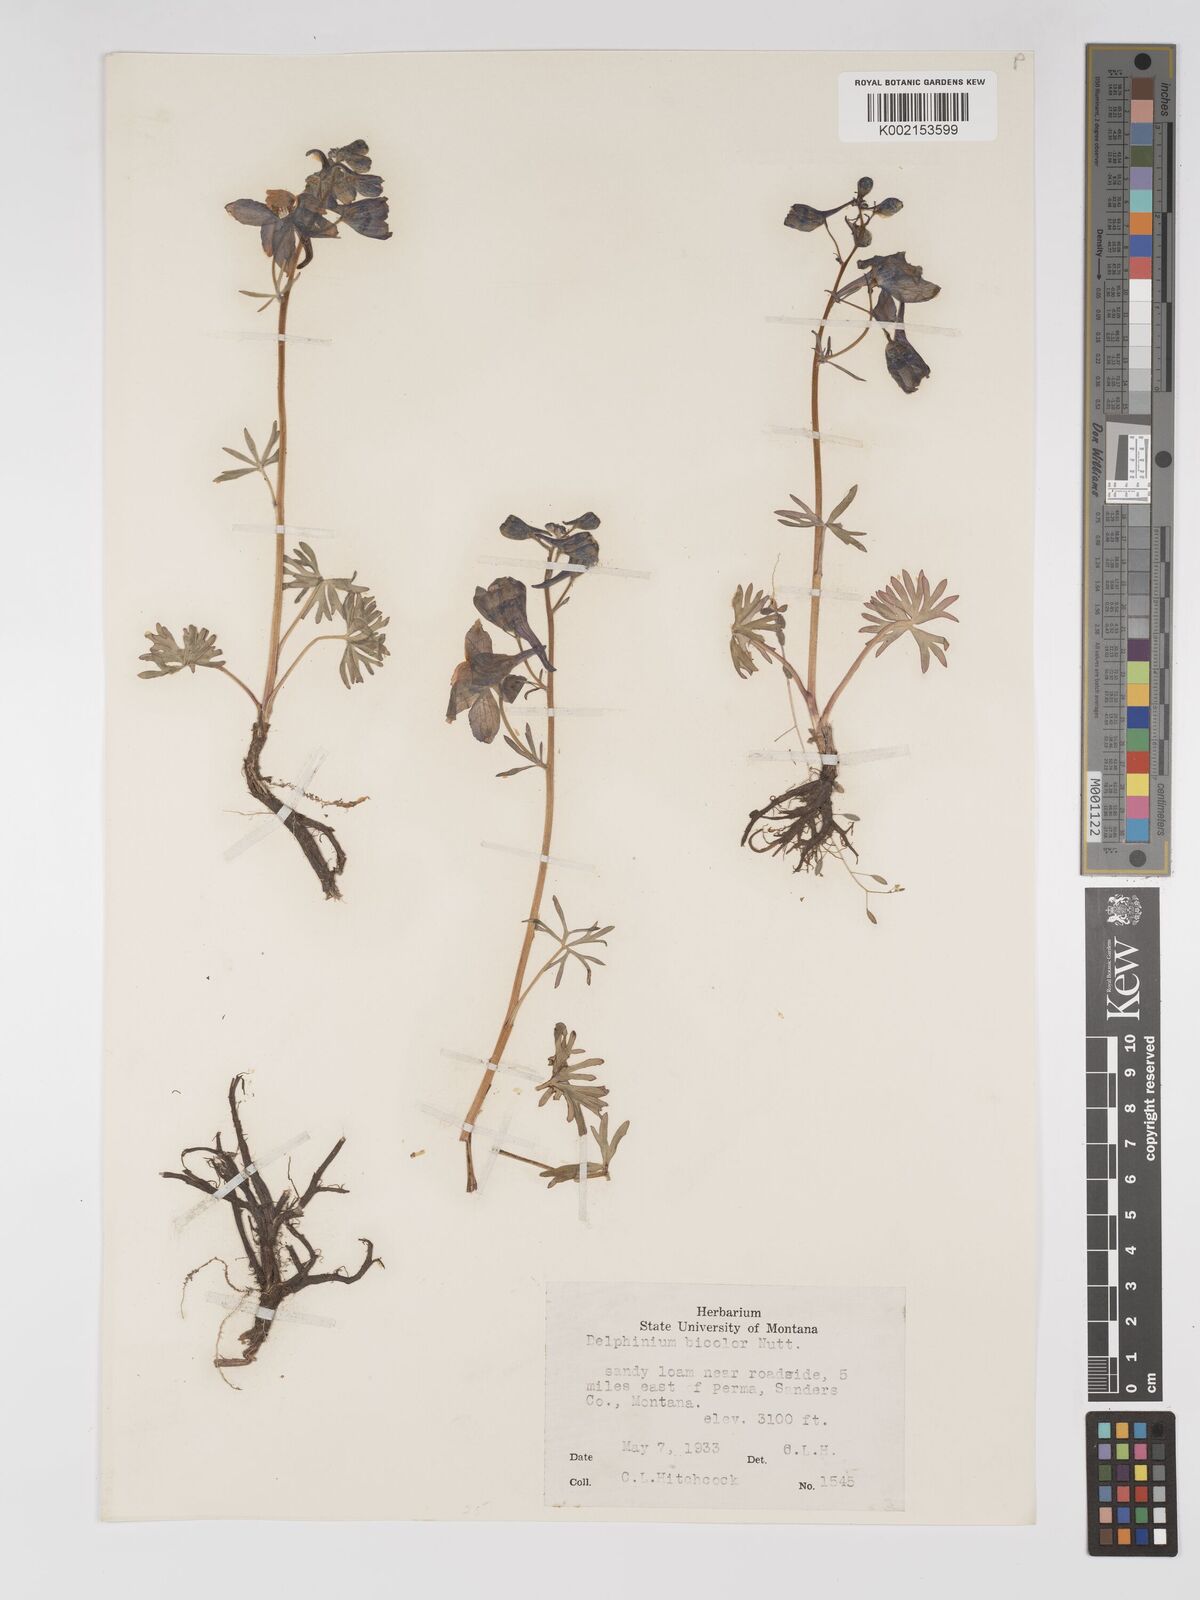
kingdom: Plantae
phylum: Tracheophyta
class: Magnoliopsida
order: Ranunculales
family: Ranunculaceae
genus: Delphinium
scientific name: Delphinium bicolor
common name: Low larkspur
